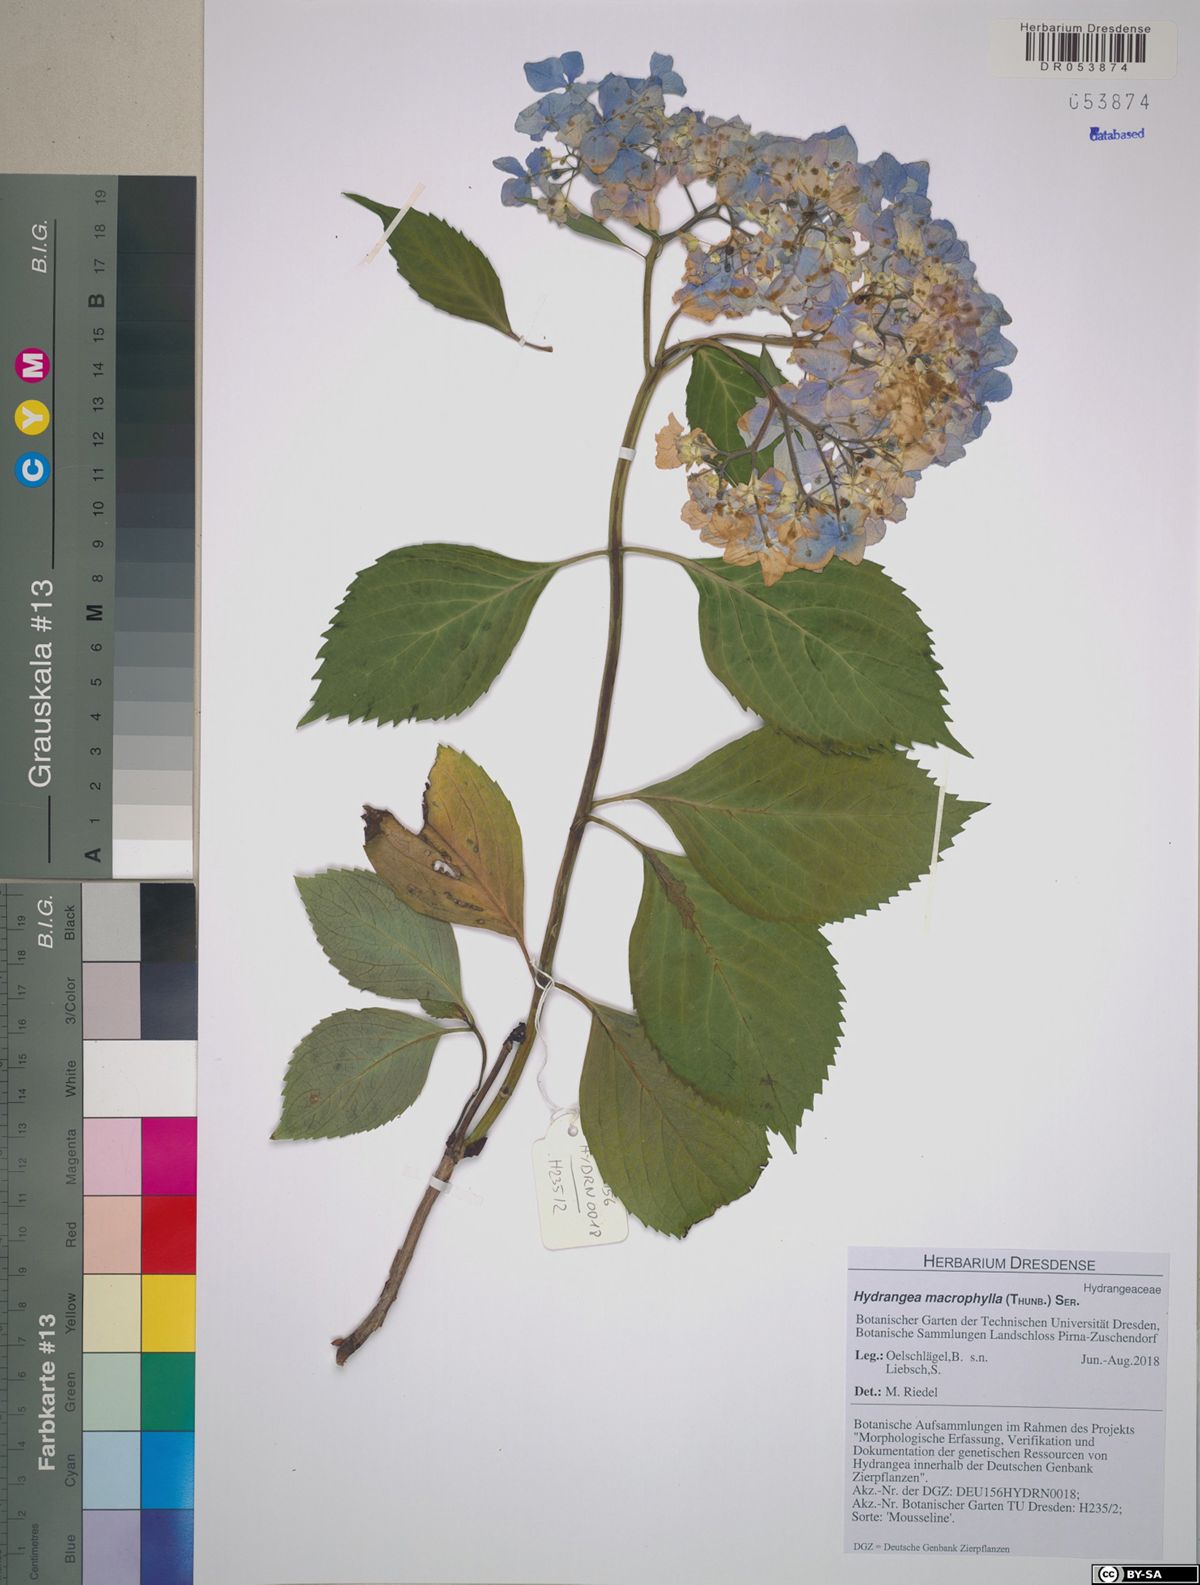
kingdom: Plantae
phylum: Tracheophyta
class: Magnoliopsida
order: Cornales
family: Hydrangeaceae
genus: Hydrangea
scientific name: Hydrangea macrophylla
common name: Hydrangea
